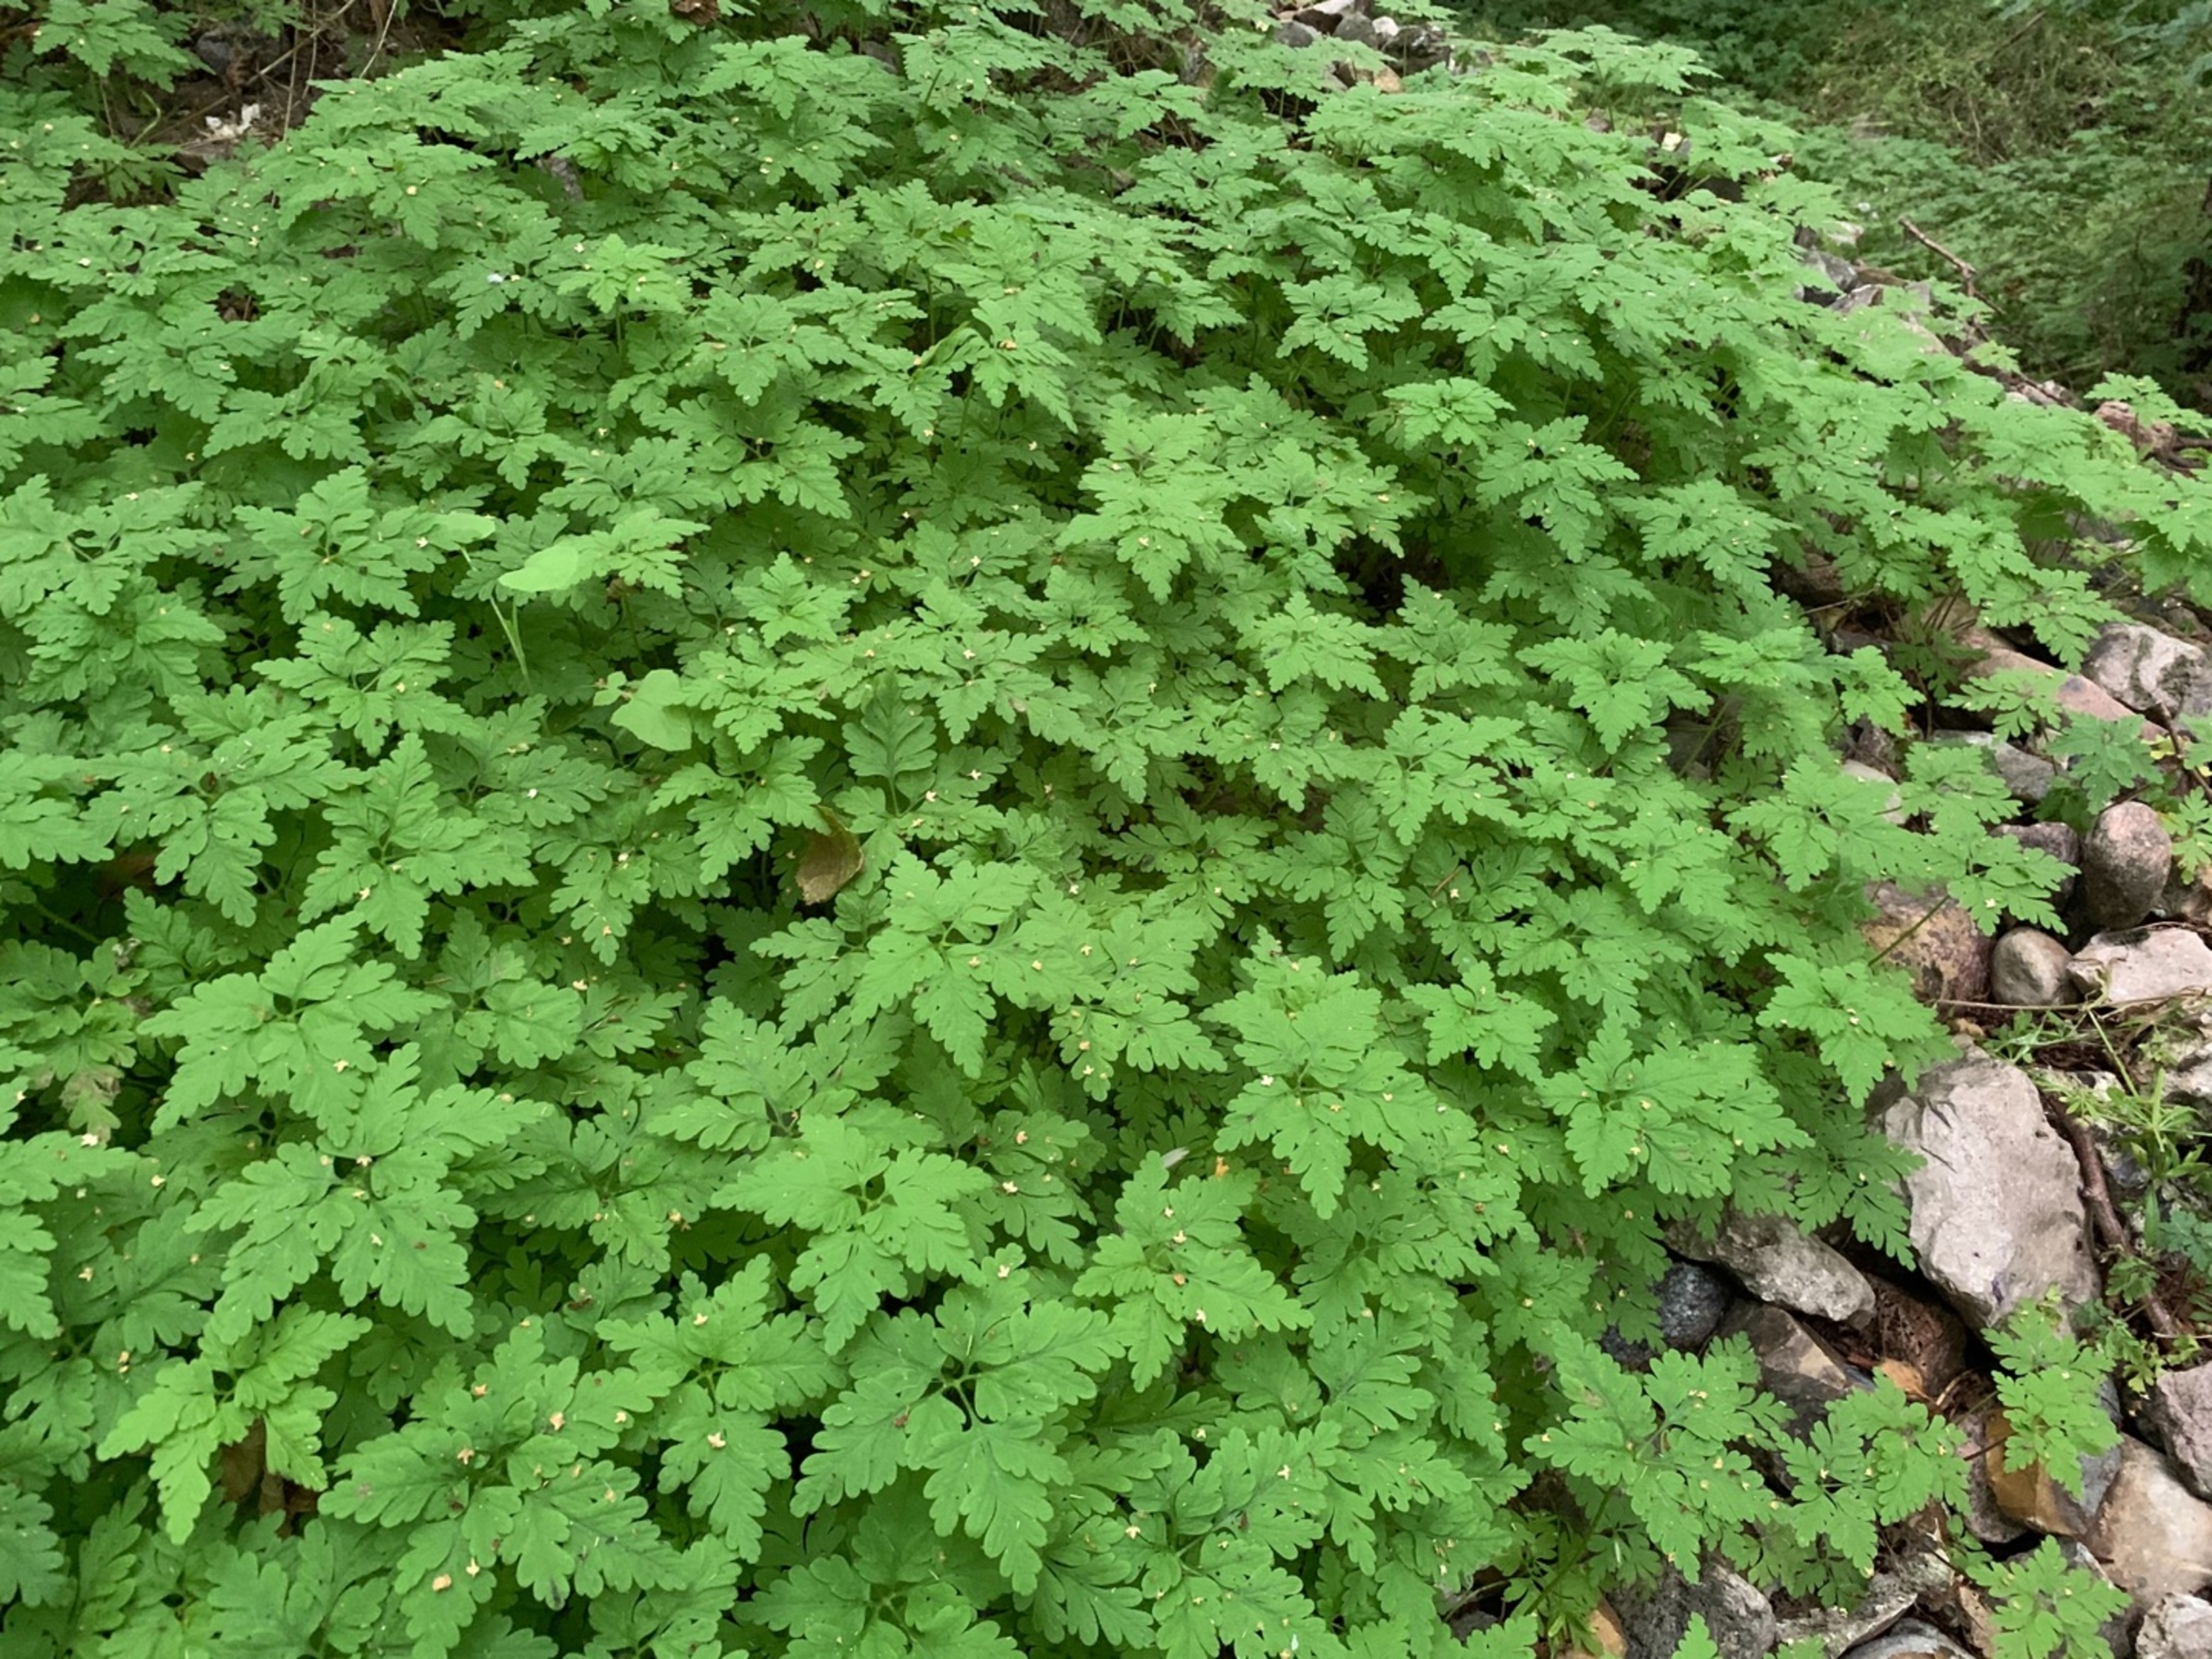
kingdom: Plantae
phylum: Tracheophyta
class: Magnoliopsida
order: Geraniales
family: Geraniaceae
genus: Geranium
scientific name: Geranium robertianum
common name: Stinkende storkenæb
